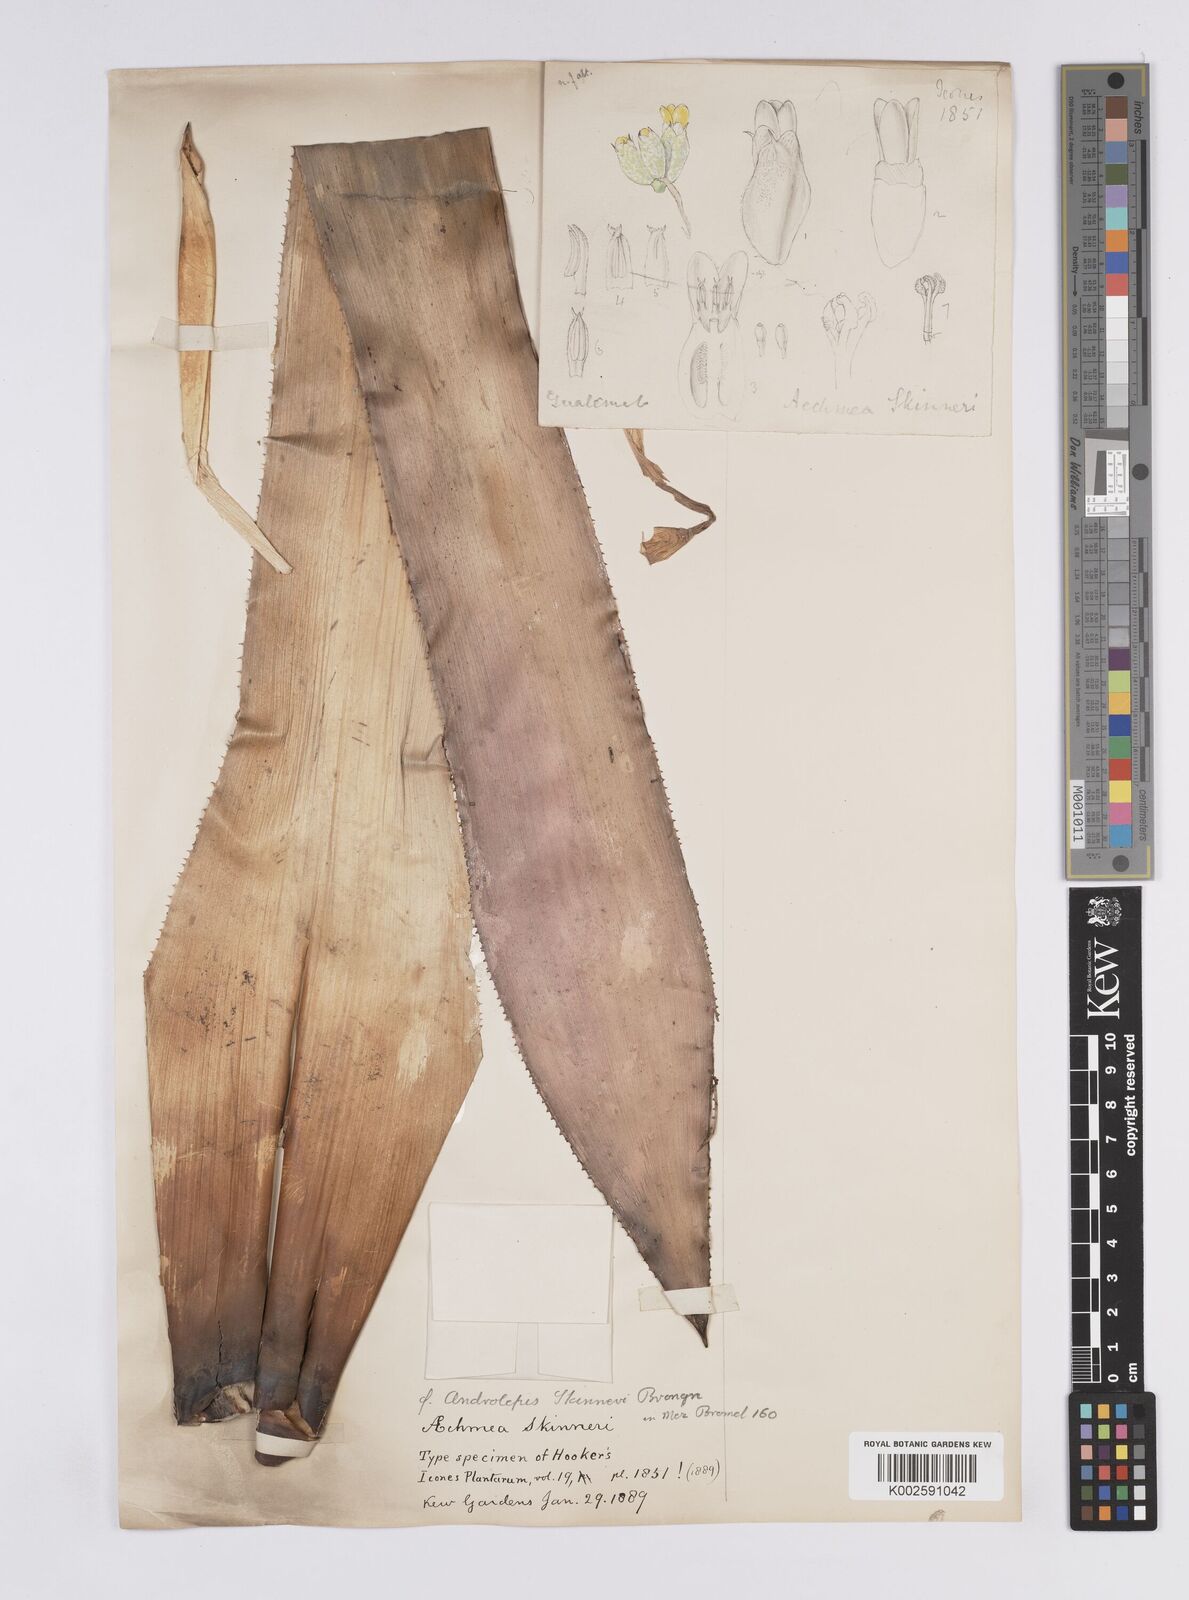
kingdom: Plantae
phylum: Tracheophyta
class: Liliopsida
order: Poales
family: Bromeliaceae
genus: Androlepis
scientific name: Androlepis skinneri
